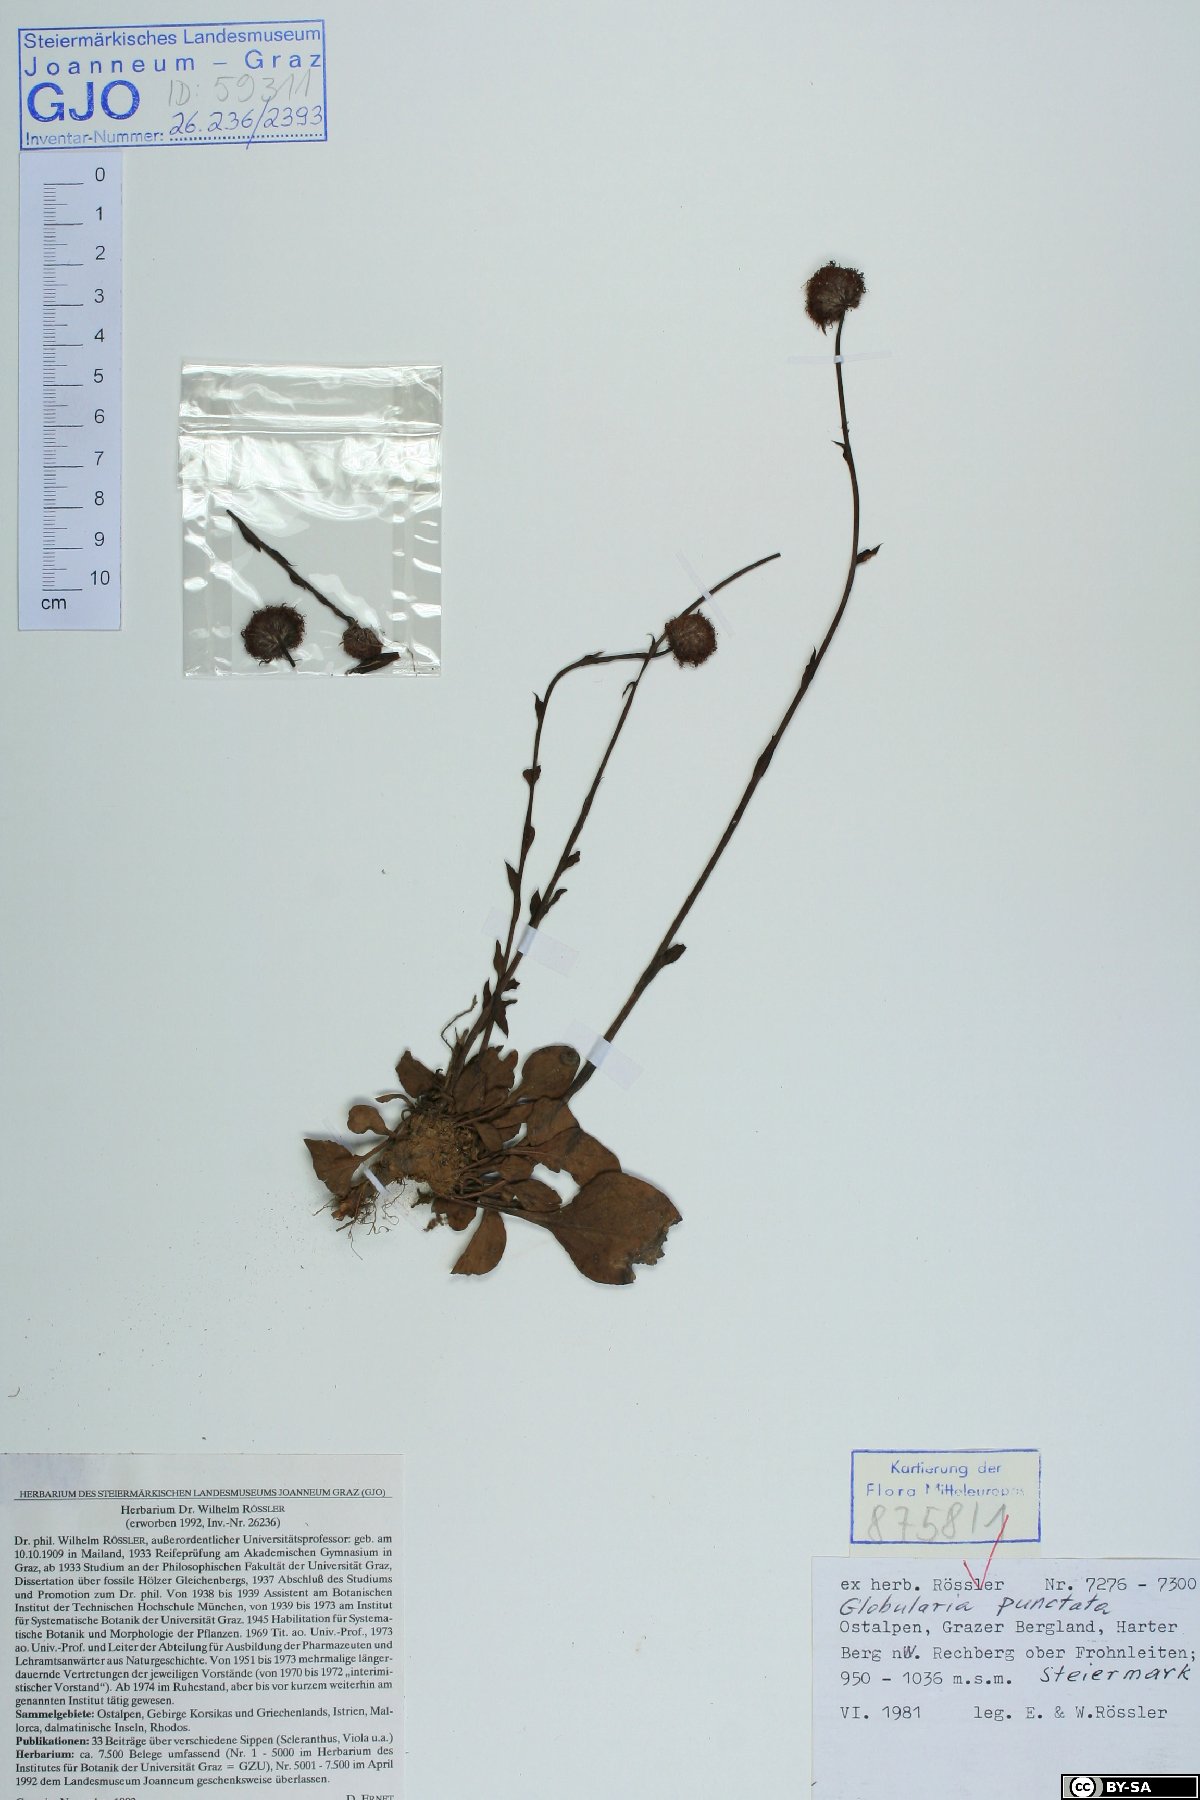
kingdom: Plantae
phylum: Tracheophyta
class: Magnoliopsida
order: Lamiales
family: Plantaginaceae
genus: Globularia
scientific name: Globularia bisnagarica
